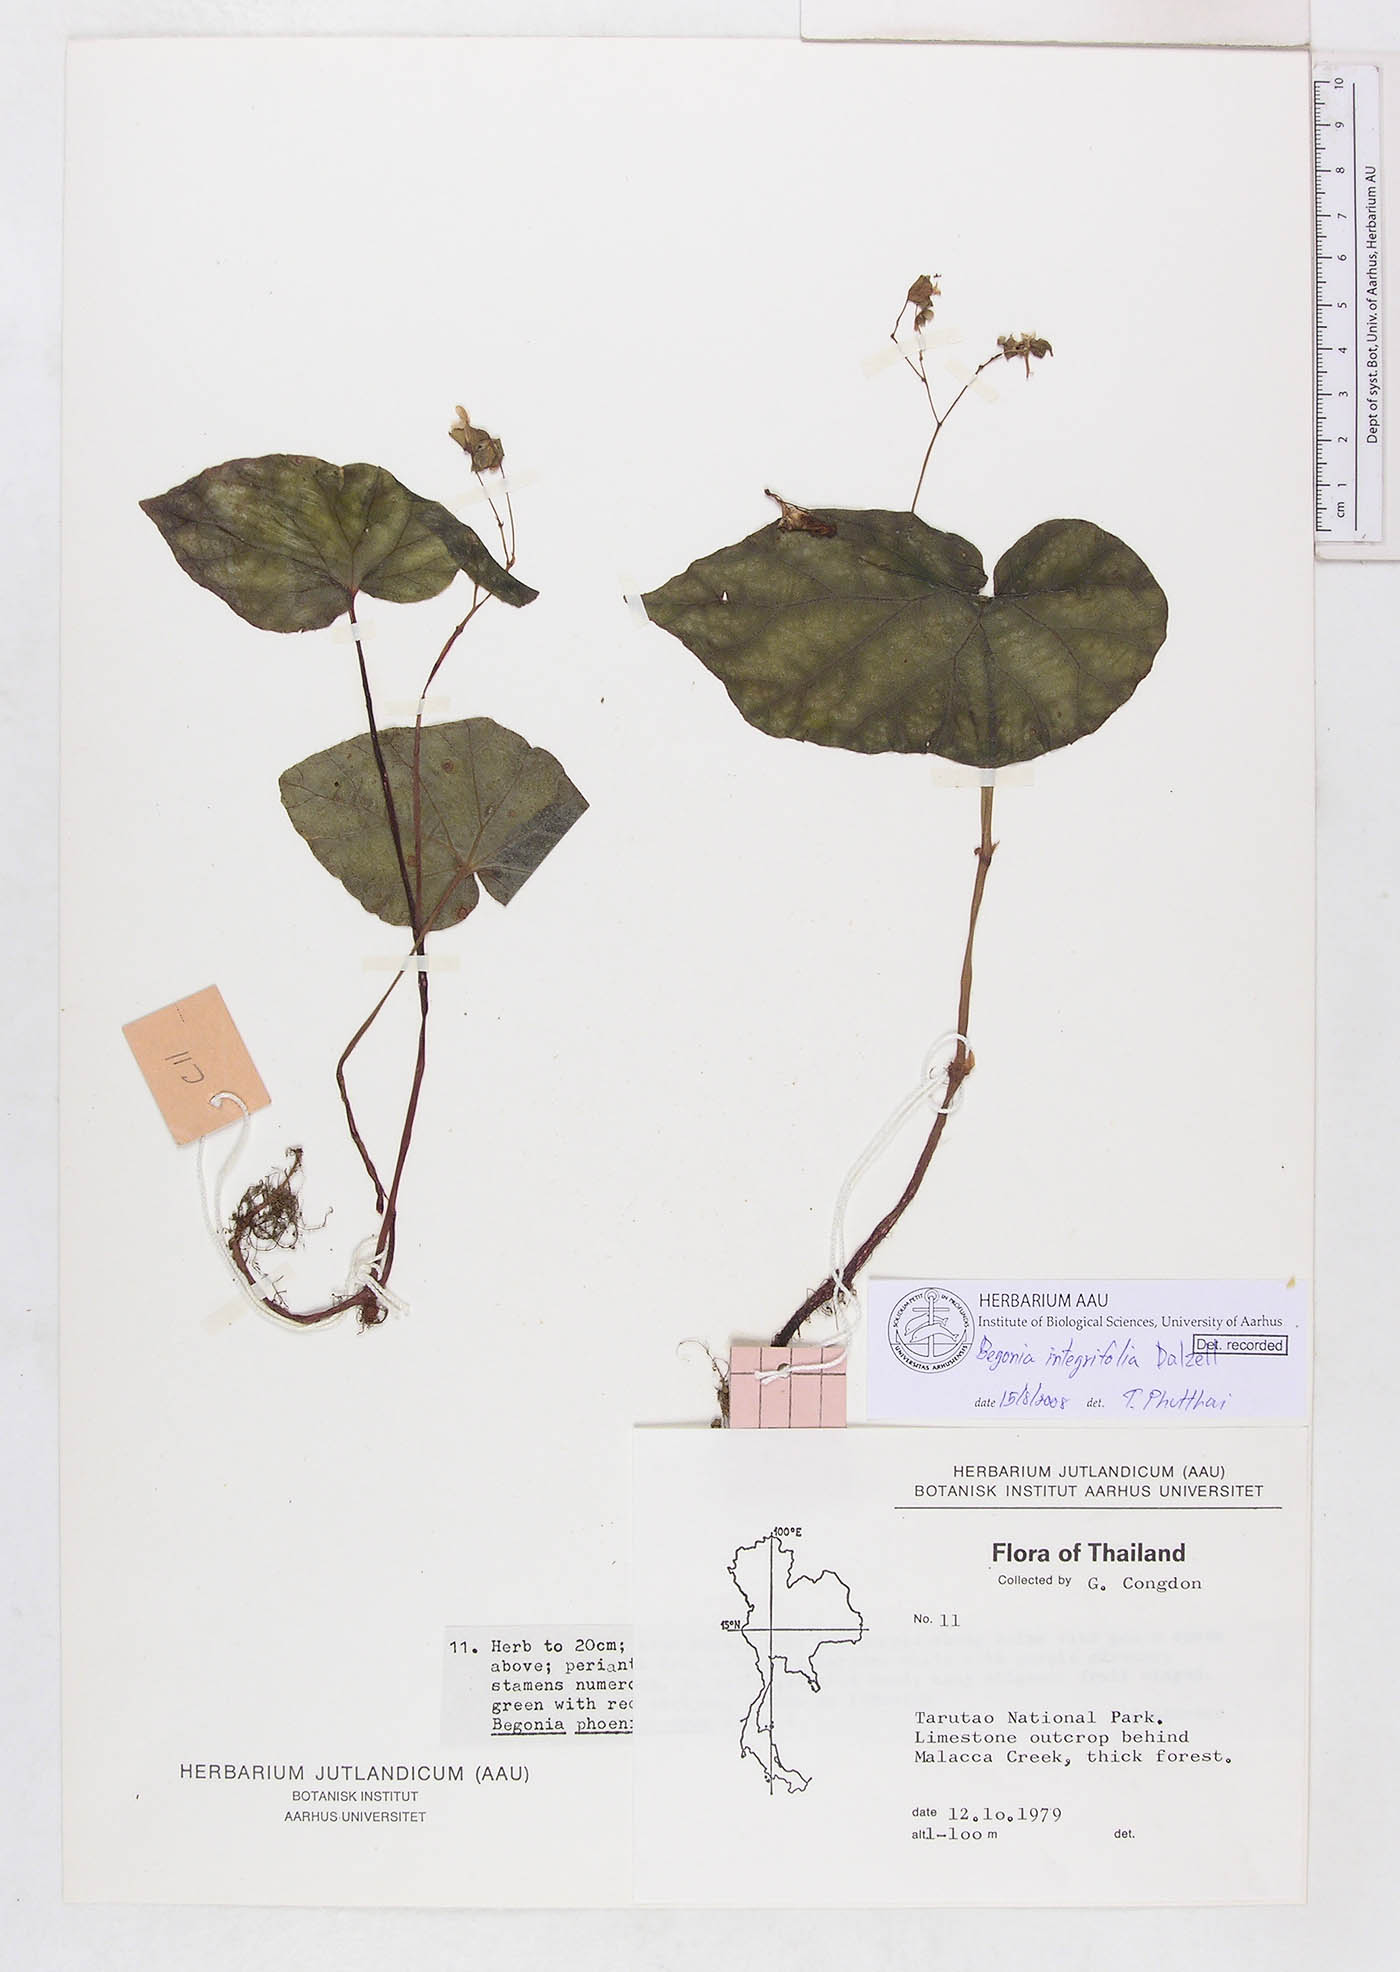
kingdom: Plantae
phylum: Tracheophyta
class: Magnoliopsida
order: Cucurbitales
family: Begoniaceae
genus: Begonia
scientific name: Begonia integrifolia
